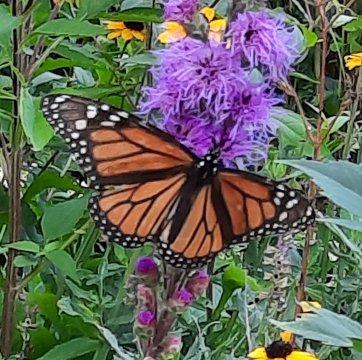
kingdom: Animalia
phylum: Arthropoda
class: Insecta
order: Lepidoptera
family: Nymphalidae
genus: Danaus
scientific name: Danaus plexippus
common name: Monarch
